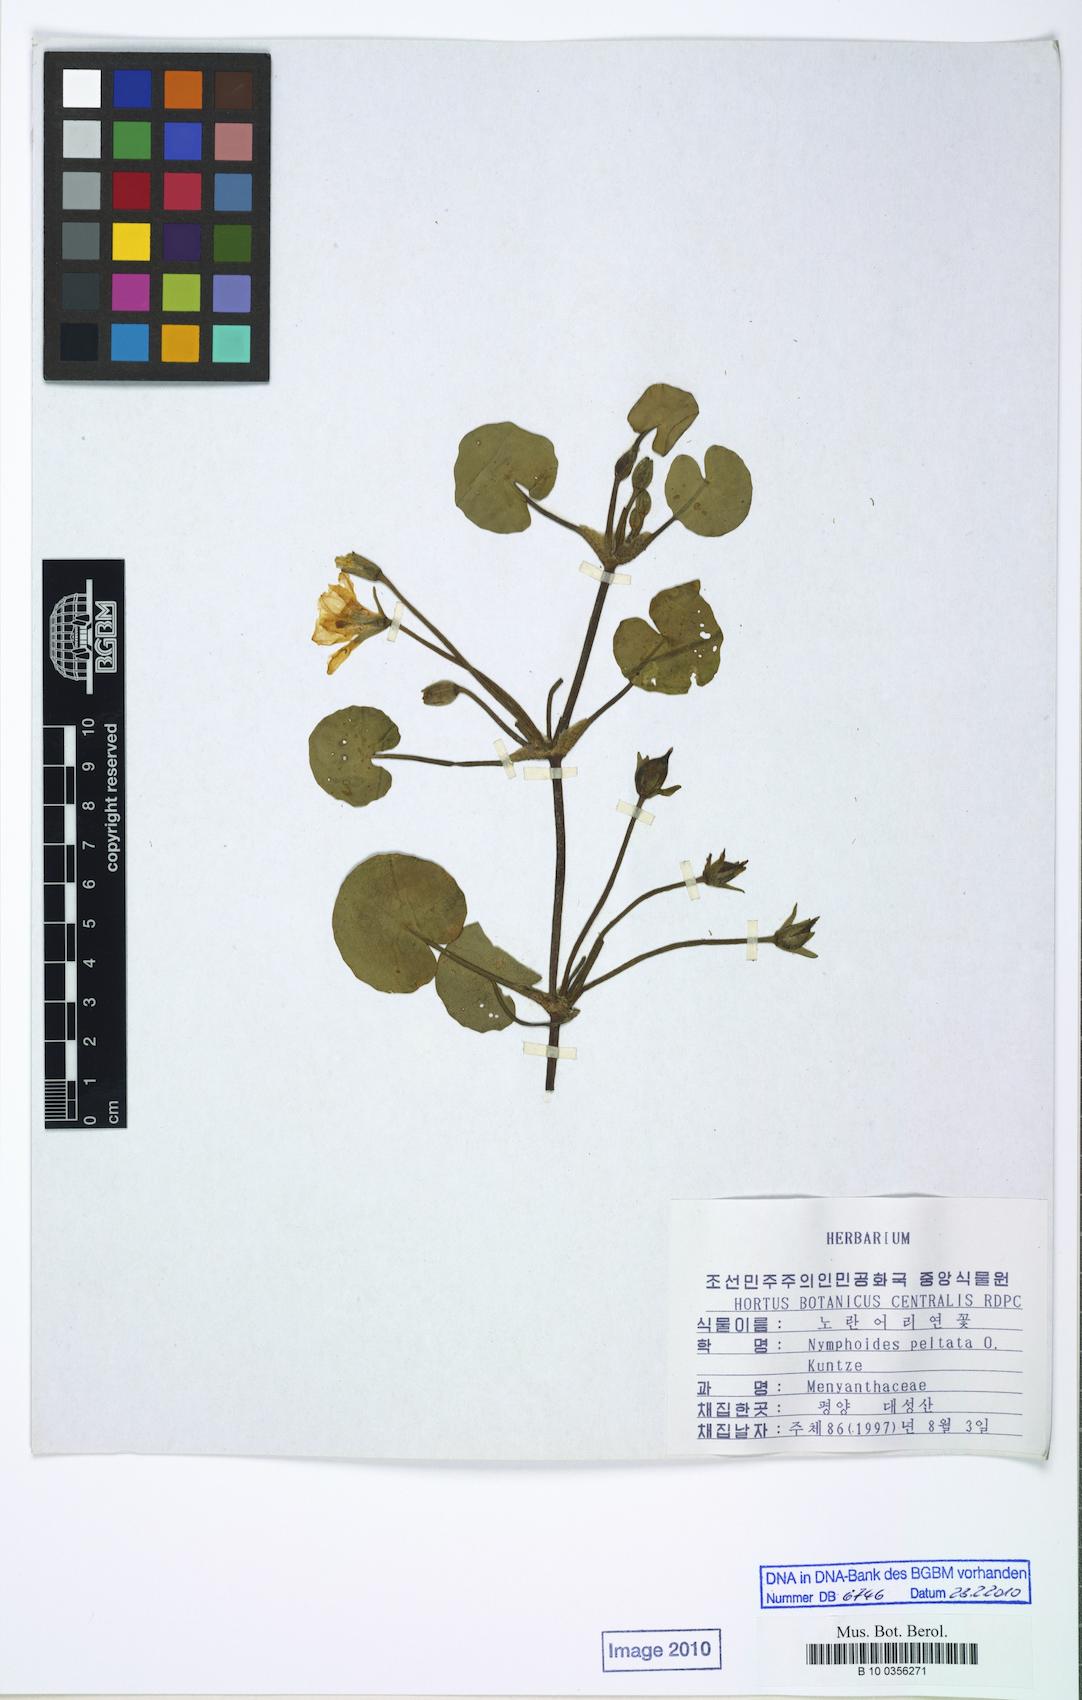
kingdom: Plantae
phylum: Tracheophyta
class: Magnoliopsida
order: Asterales
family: Menyanthaceae
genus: Nymphoides
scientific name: Nymphoides peltata
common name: Fringed water-lily
